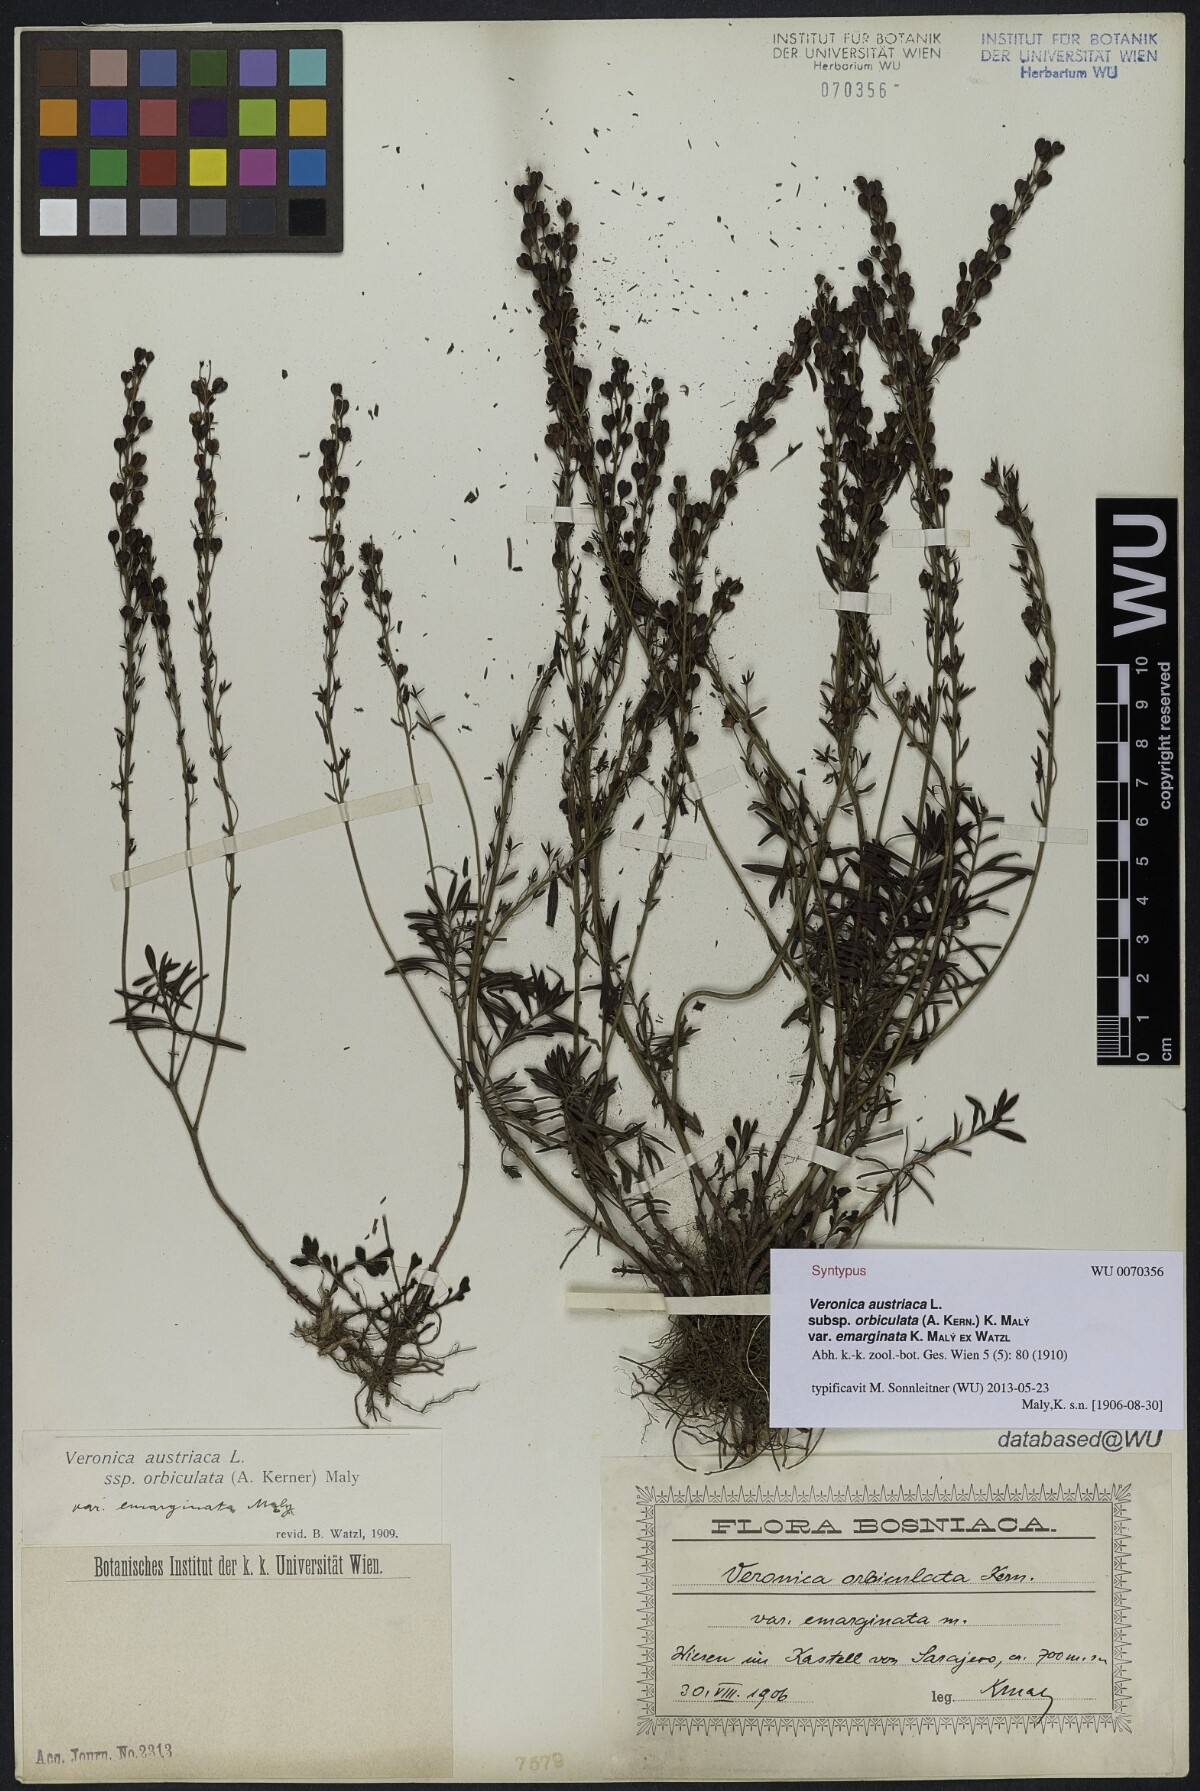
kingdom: Plantae
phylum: Tracheophyta
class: Magnoliopsida
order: Lamiales
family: Plantaginaceae
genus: Veronica
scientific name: Veronica orbiculata
